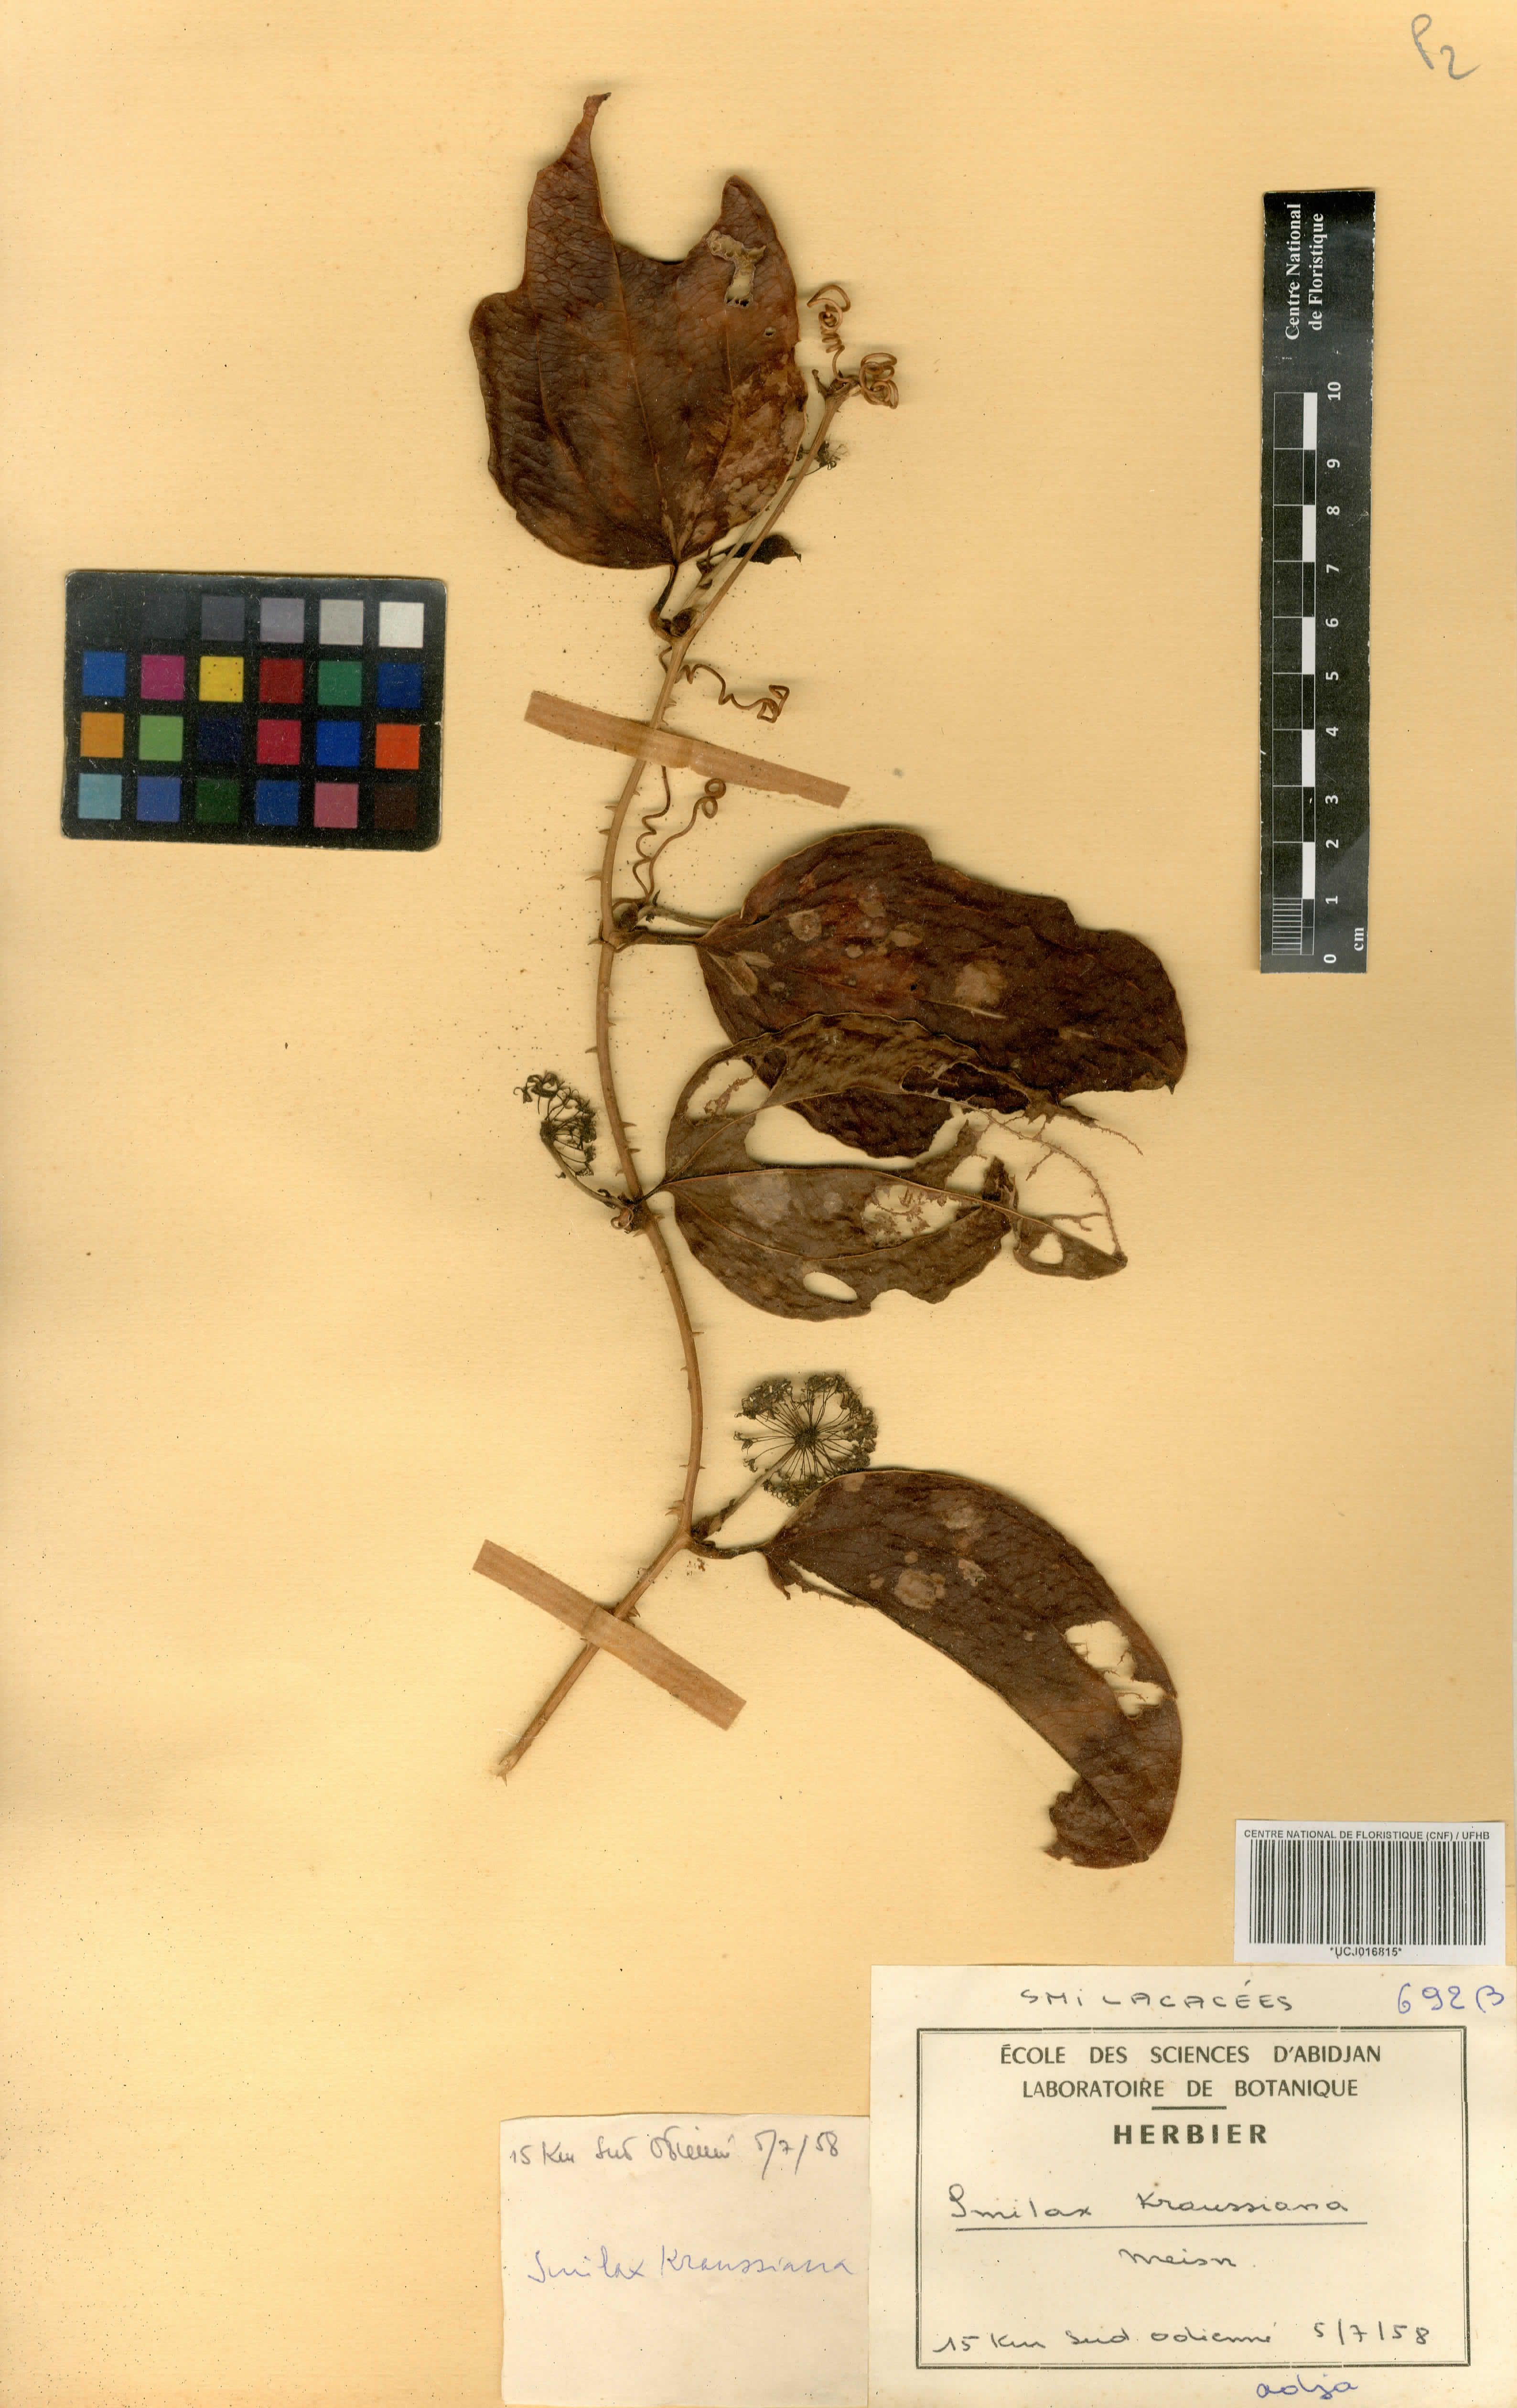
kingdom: Plantae
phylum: Tracheophyta
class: Liliopsida
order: Liliales
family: Smilacaceae
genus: Smilax
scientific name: Smilax anceps
